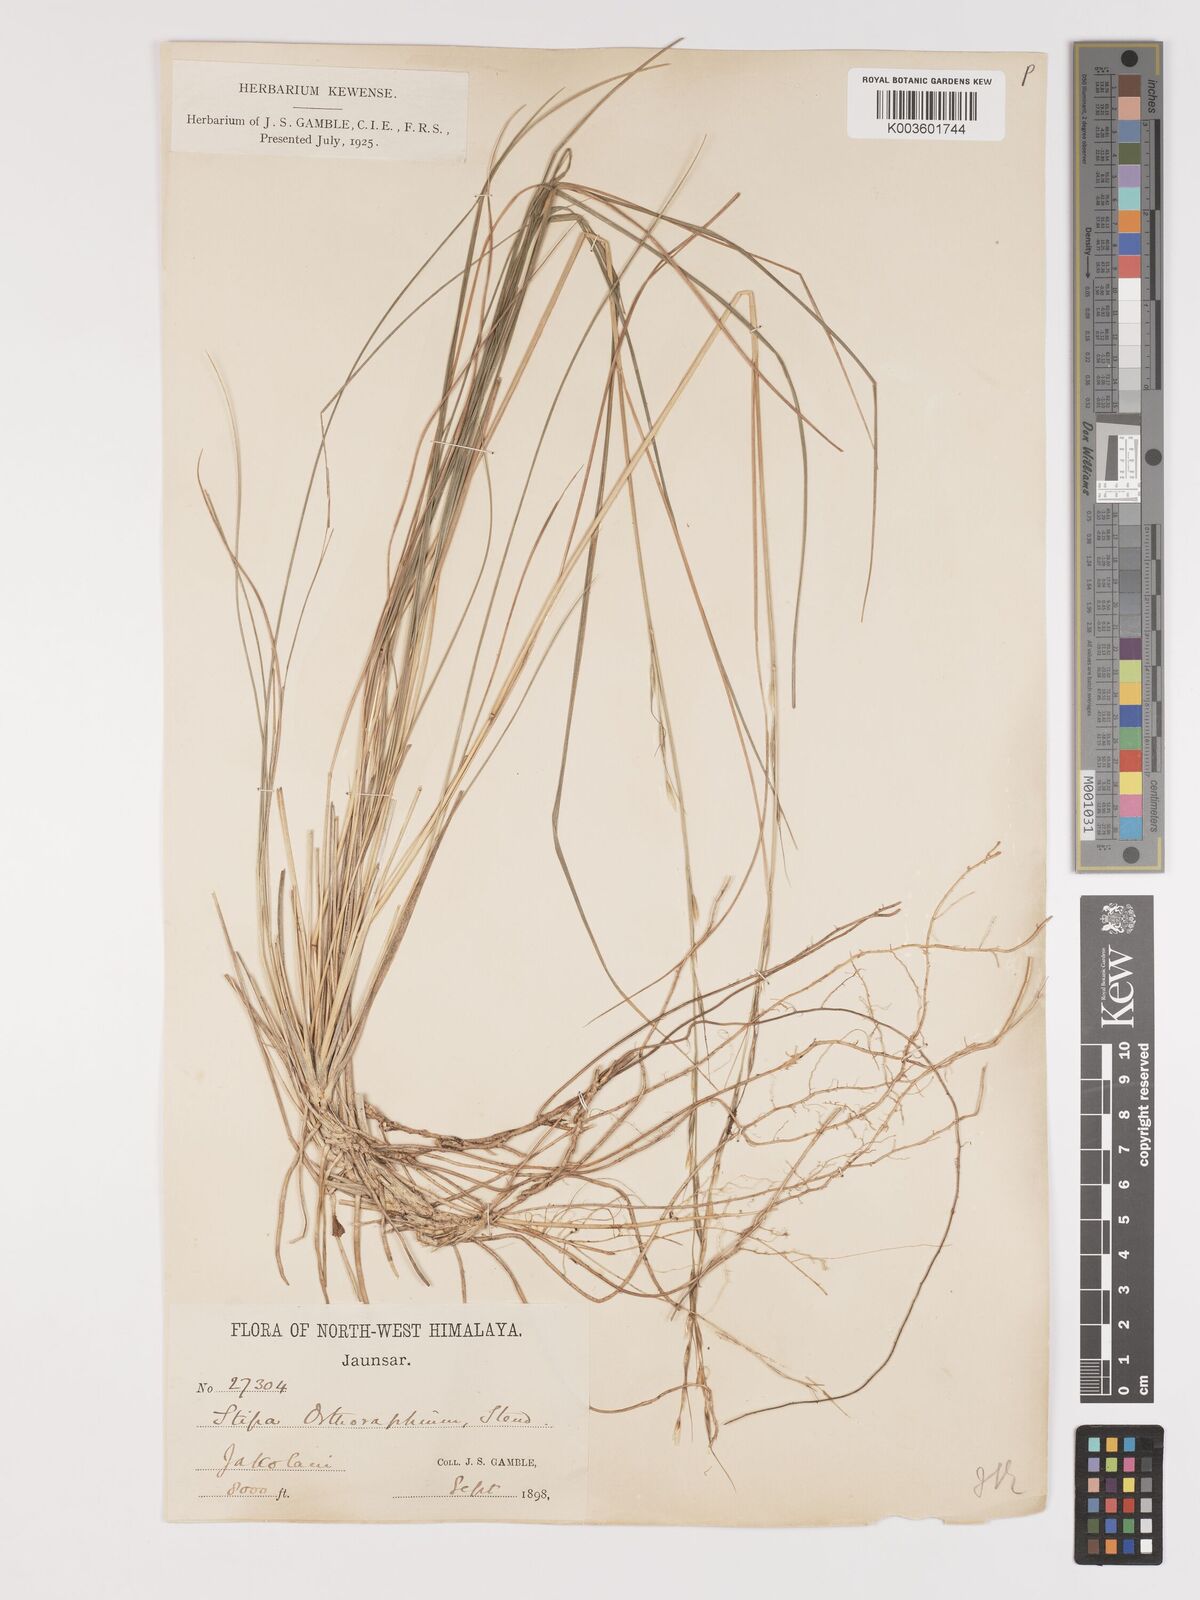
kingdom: Plantae
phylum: Tracheophyta
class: Liliopsida
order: Poales
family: Poaceae
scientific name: Poaceae
